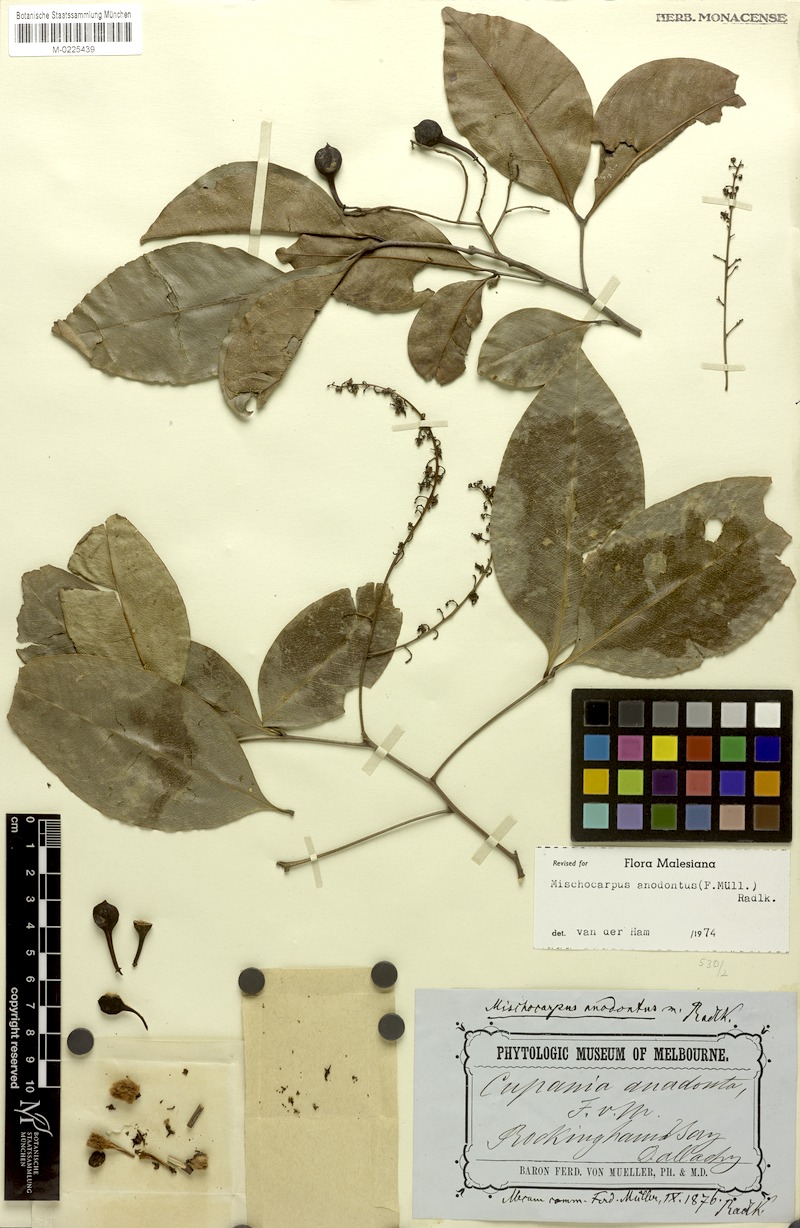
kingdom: Plantae
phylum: Tracheophyta
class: Magnoliopsida
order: Sapindales
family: Sapindaceae
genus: Mischocarpus
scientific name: Mischocarpus anodontus
